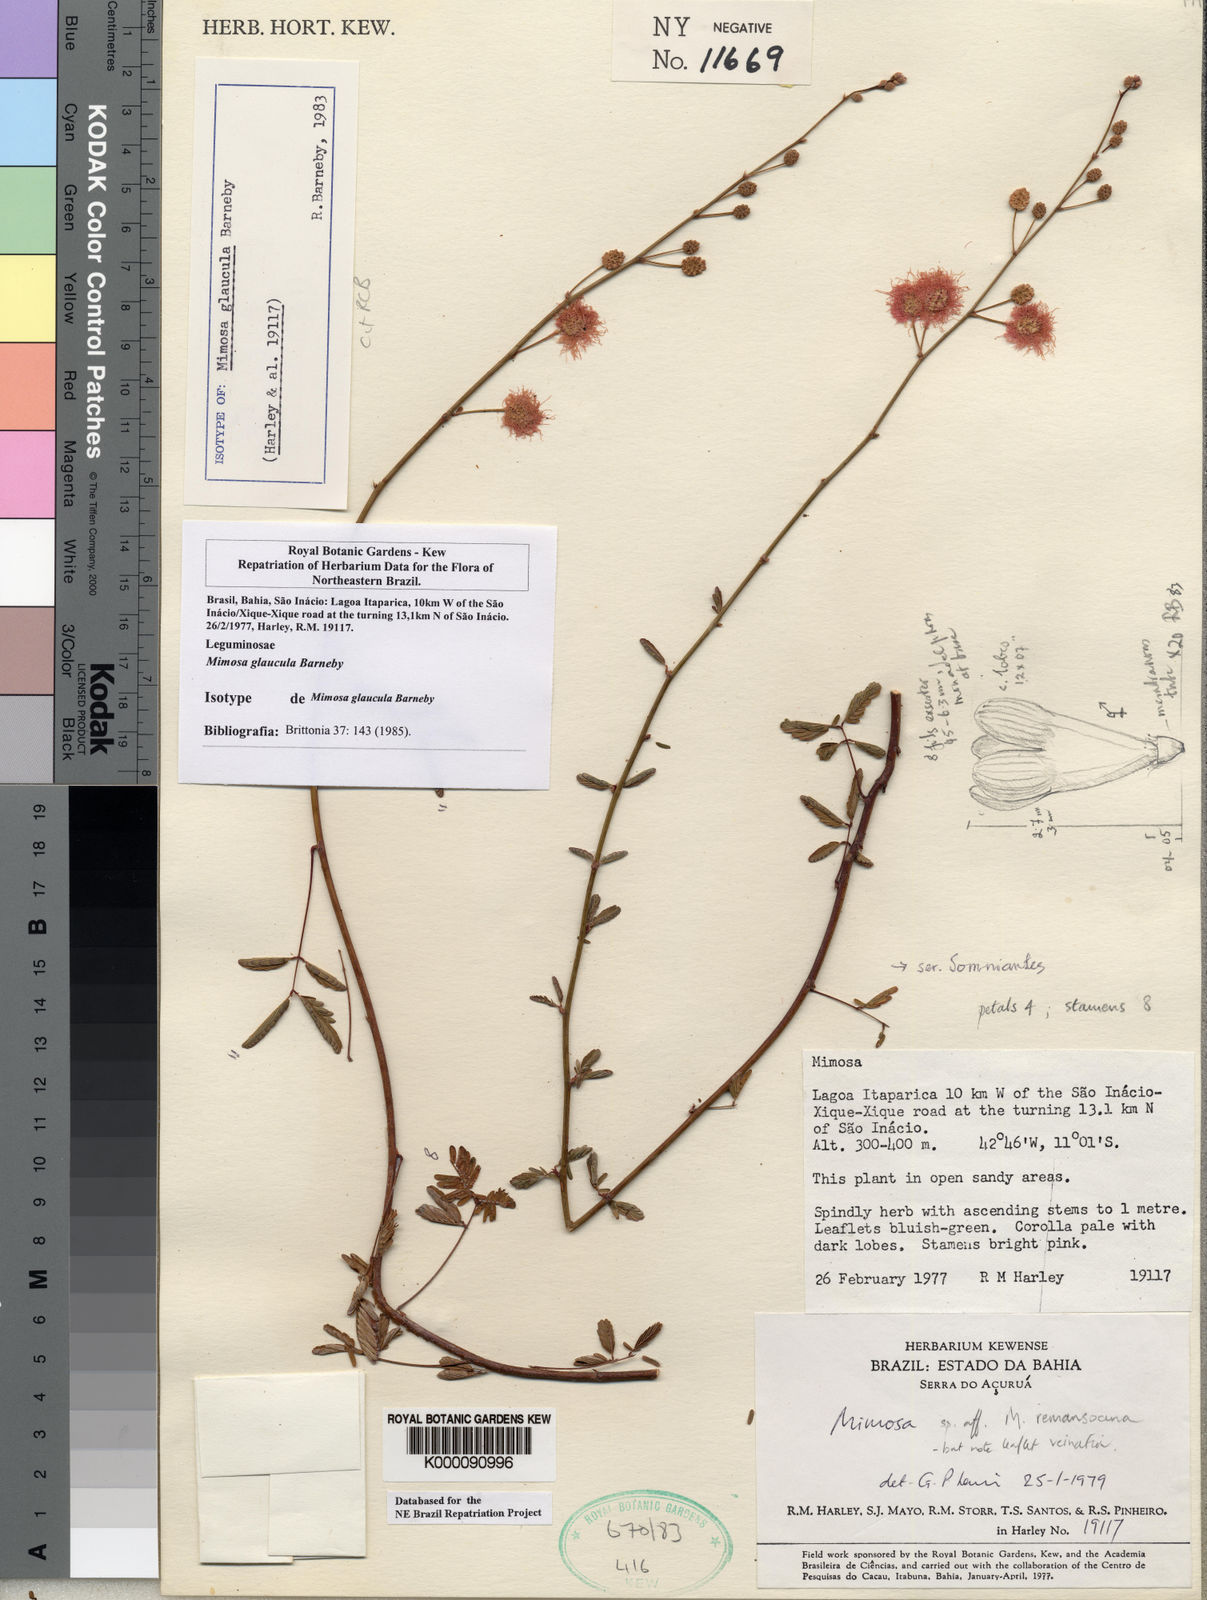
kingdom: Plantae
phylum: Tracheophyta
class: Magnoliopsida
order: Fabales
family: Fabaceae
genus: Mimosa
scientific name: Mimosa glaucula
